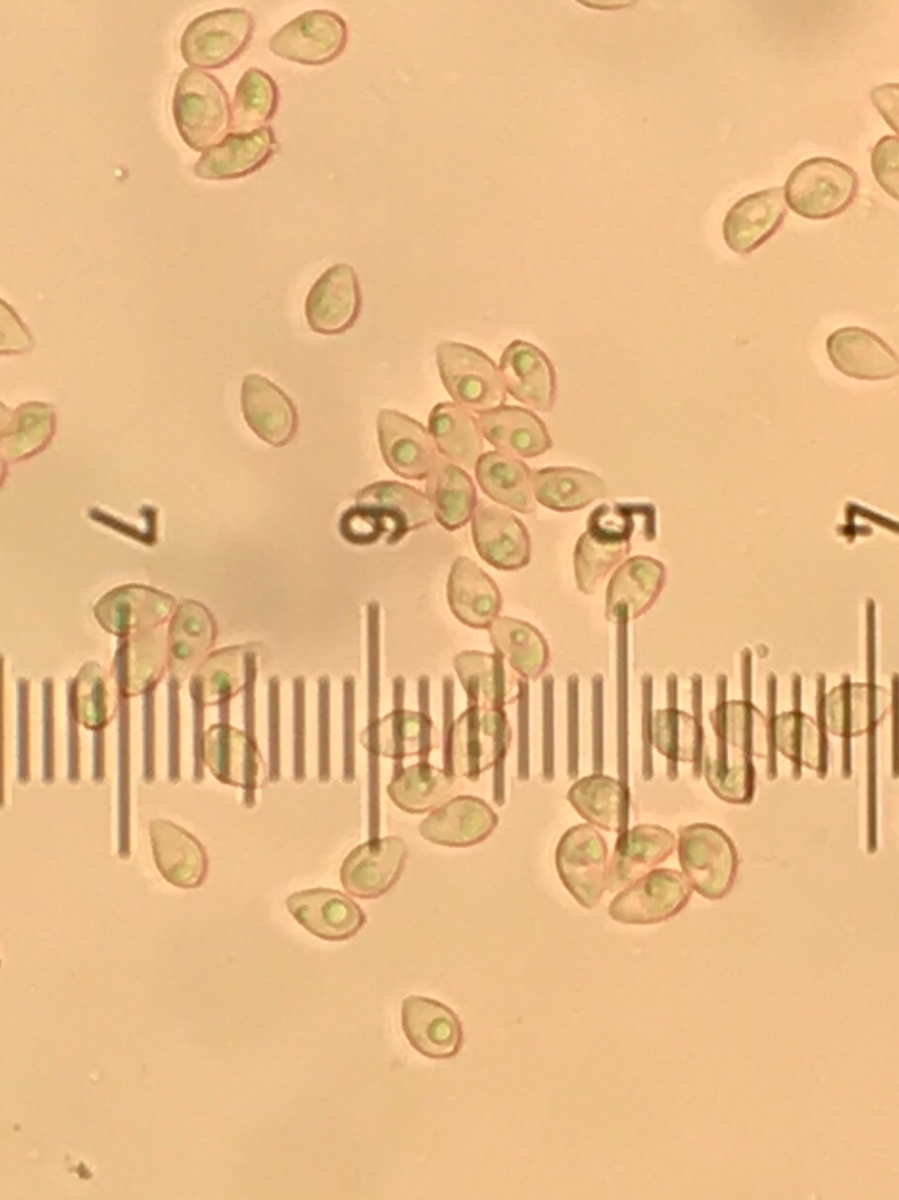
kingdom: Fungi
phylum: Basidiomycota
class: Agaricomycetes
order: Agaricales
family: Tubariaceae
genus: Tubaria
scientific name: Tubaria conspersa
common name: bleg fnughat
